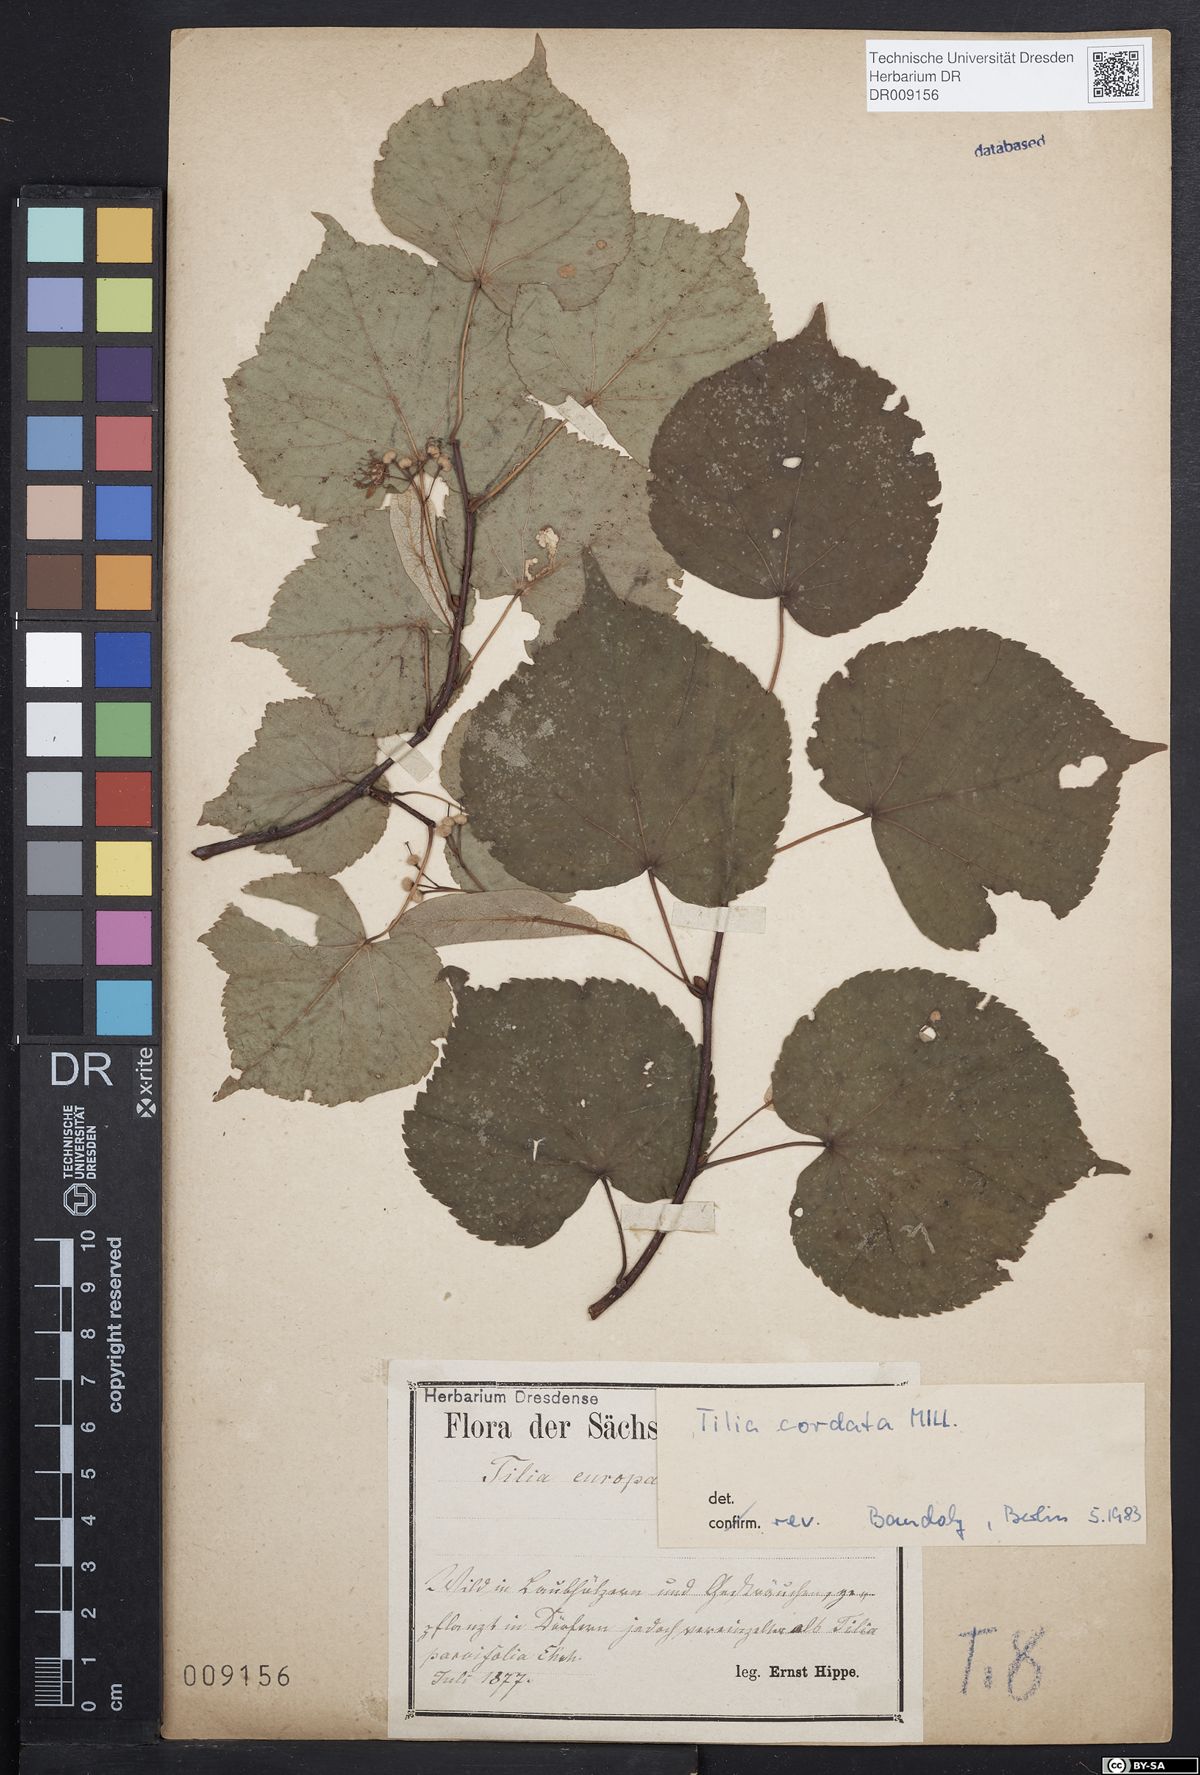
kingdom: Plantae
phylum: Tracheophyta
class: Magnoliopsida
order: Malvales
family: Malvaceae
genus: Tilia
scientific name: Tilia cordata
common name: Small-leaved lime
